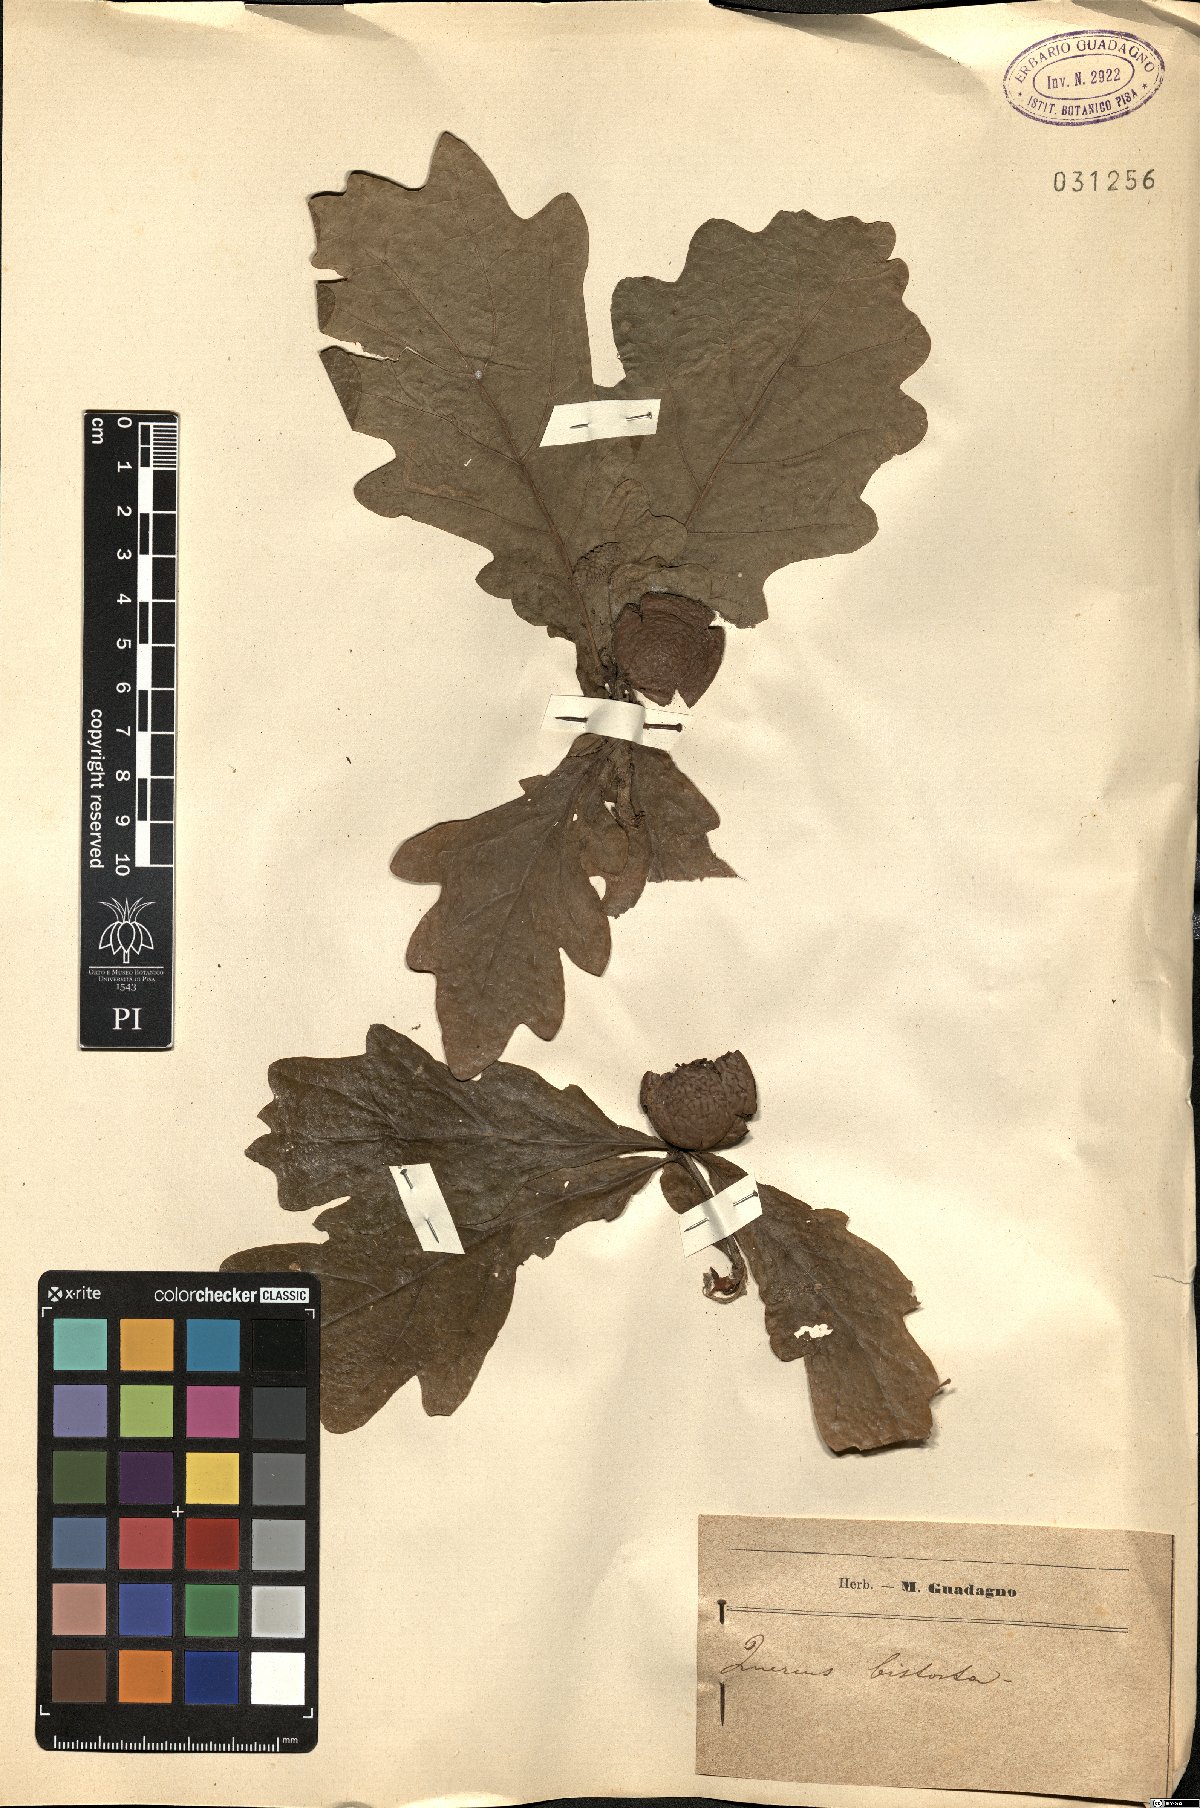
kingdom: Plantae
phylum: Tracheophyta
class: Magnoliopsida
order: Fagales
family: Fagaceae
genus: Quercus
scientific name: Quercus
